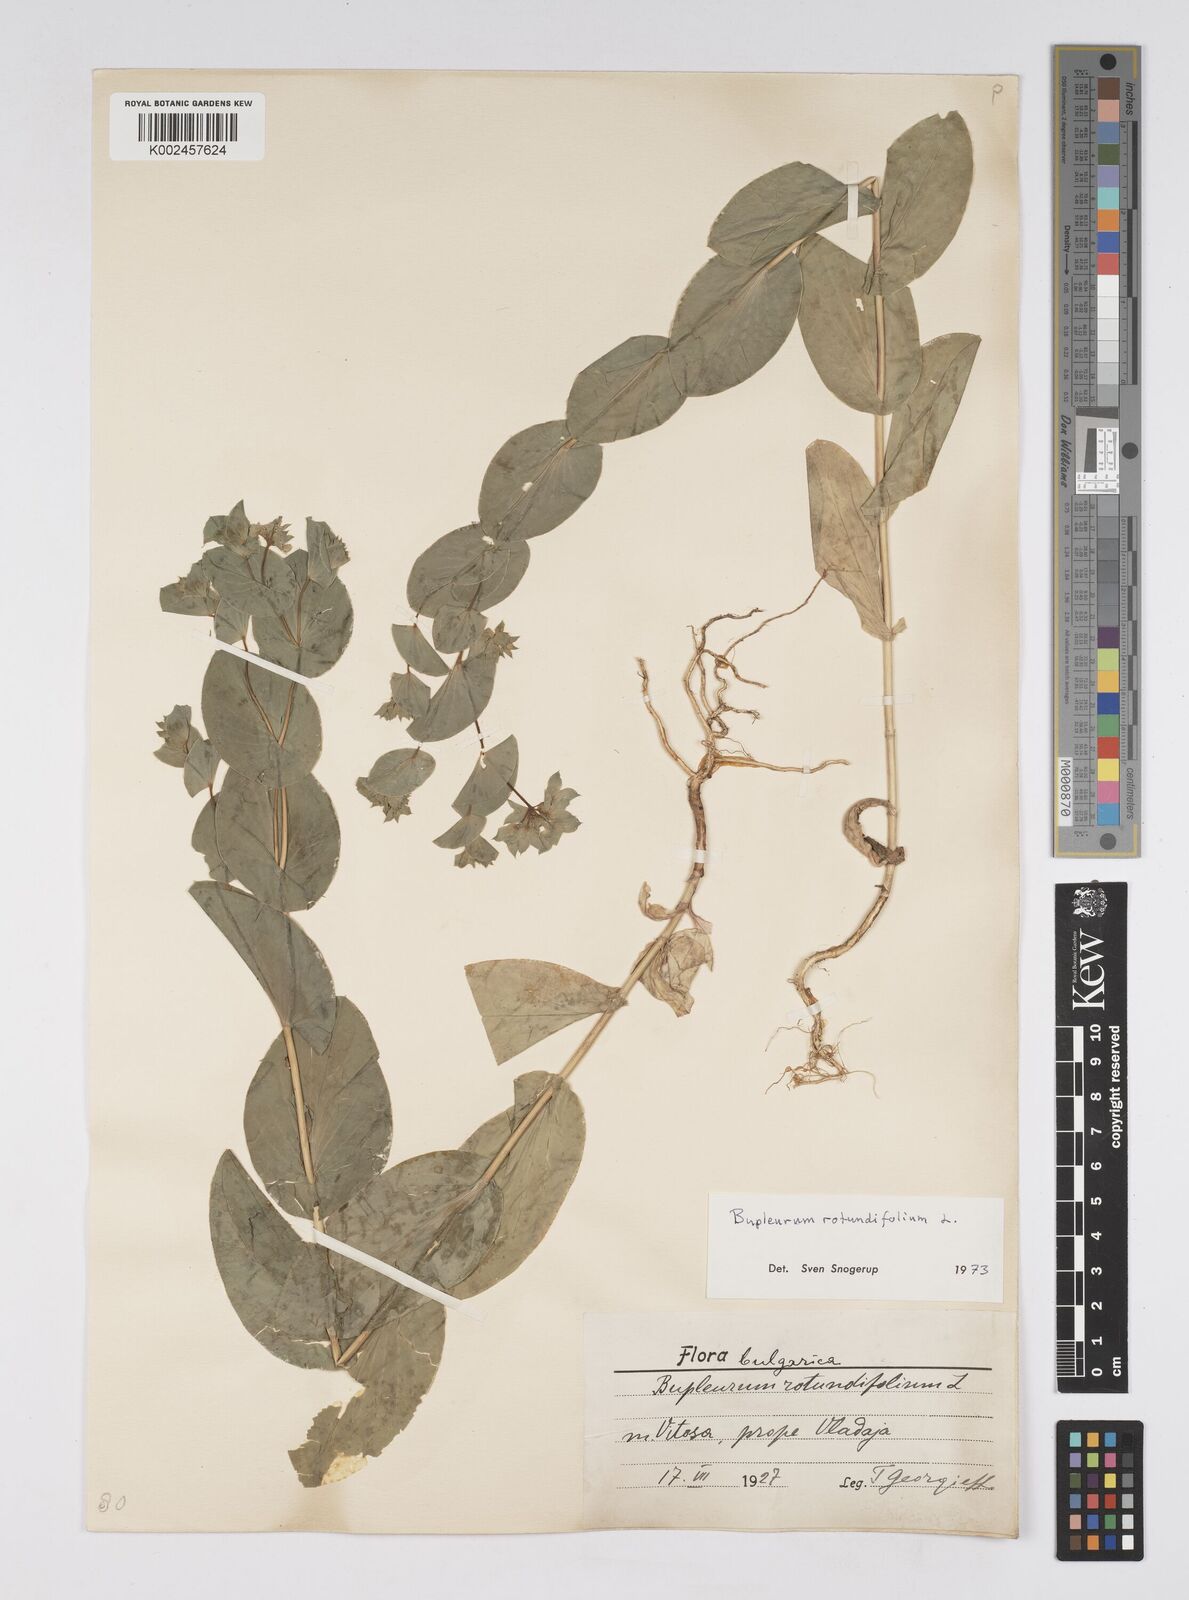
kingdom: Plantae
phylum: Tracheophyta
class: Magnoliopsida
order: Apiales
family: Apiaceae
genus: Bupleurum
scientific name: Bupleurum rotundifolium
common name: Thorow-wax
